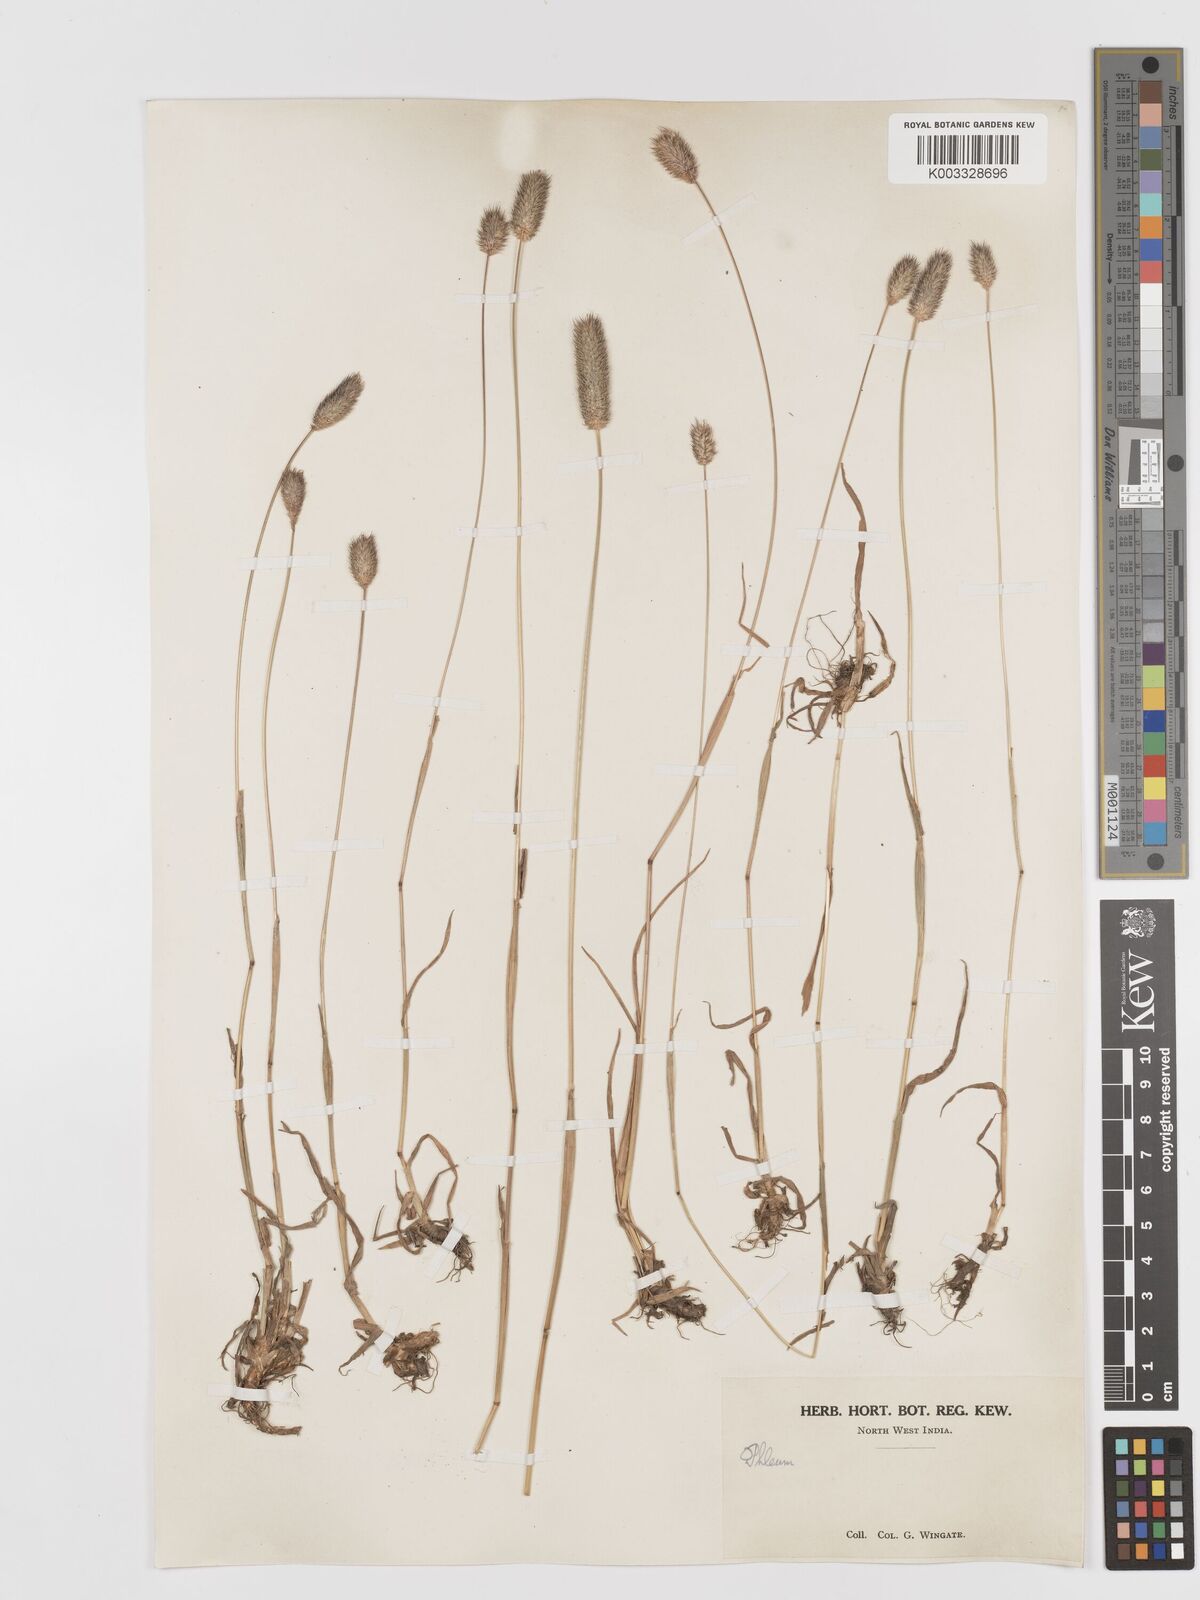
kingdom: Plantae
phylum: Tracheophyta
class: Liliopsida
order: Poales
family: Poaceae
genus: Phleum
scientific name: Phleum alpinum
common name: Alpine cat's-tail
